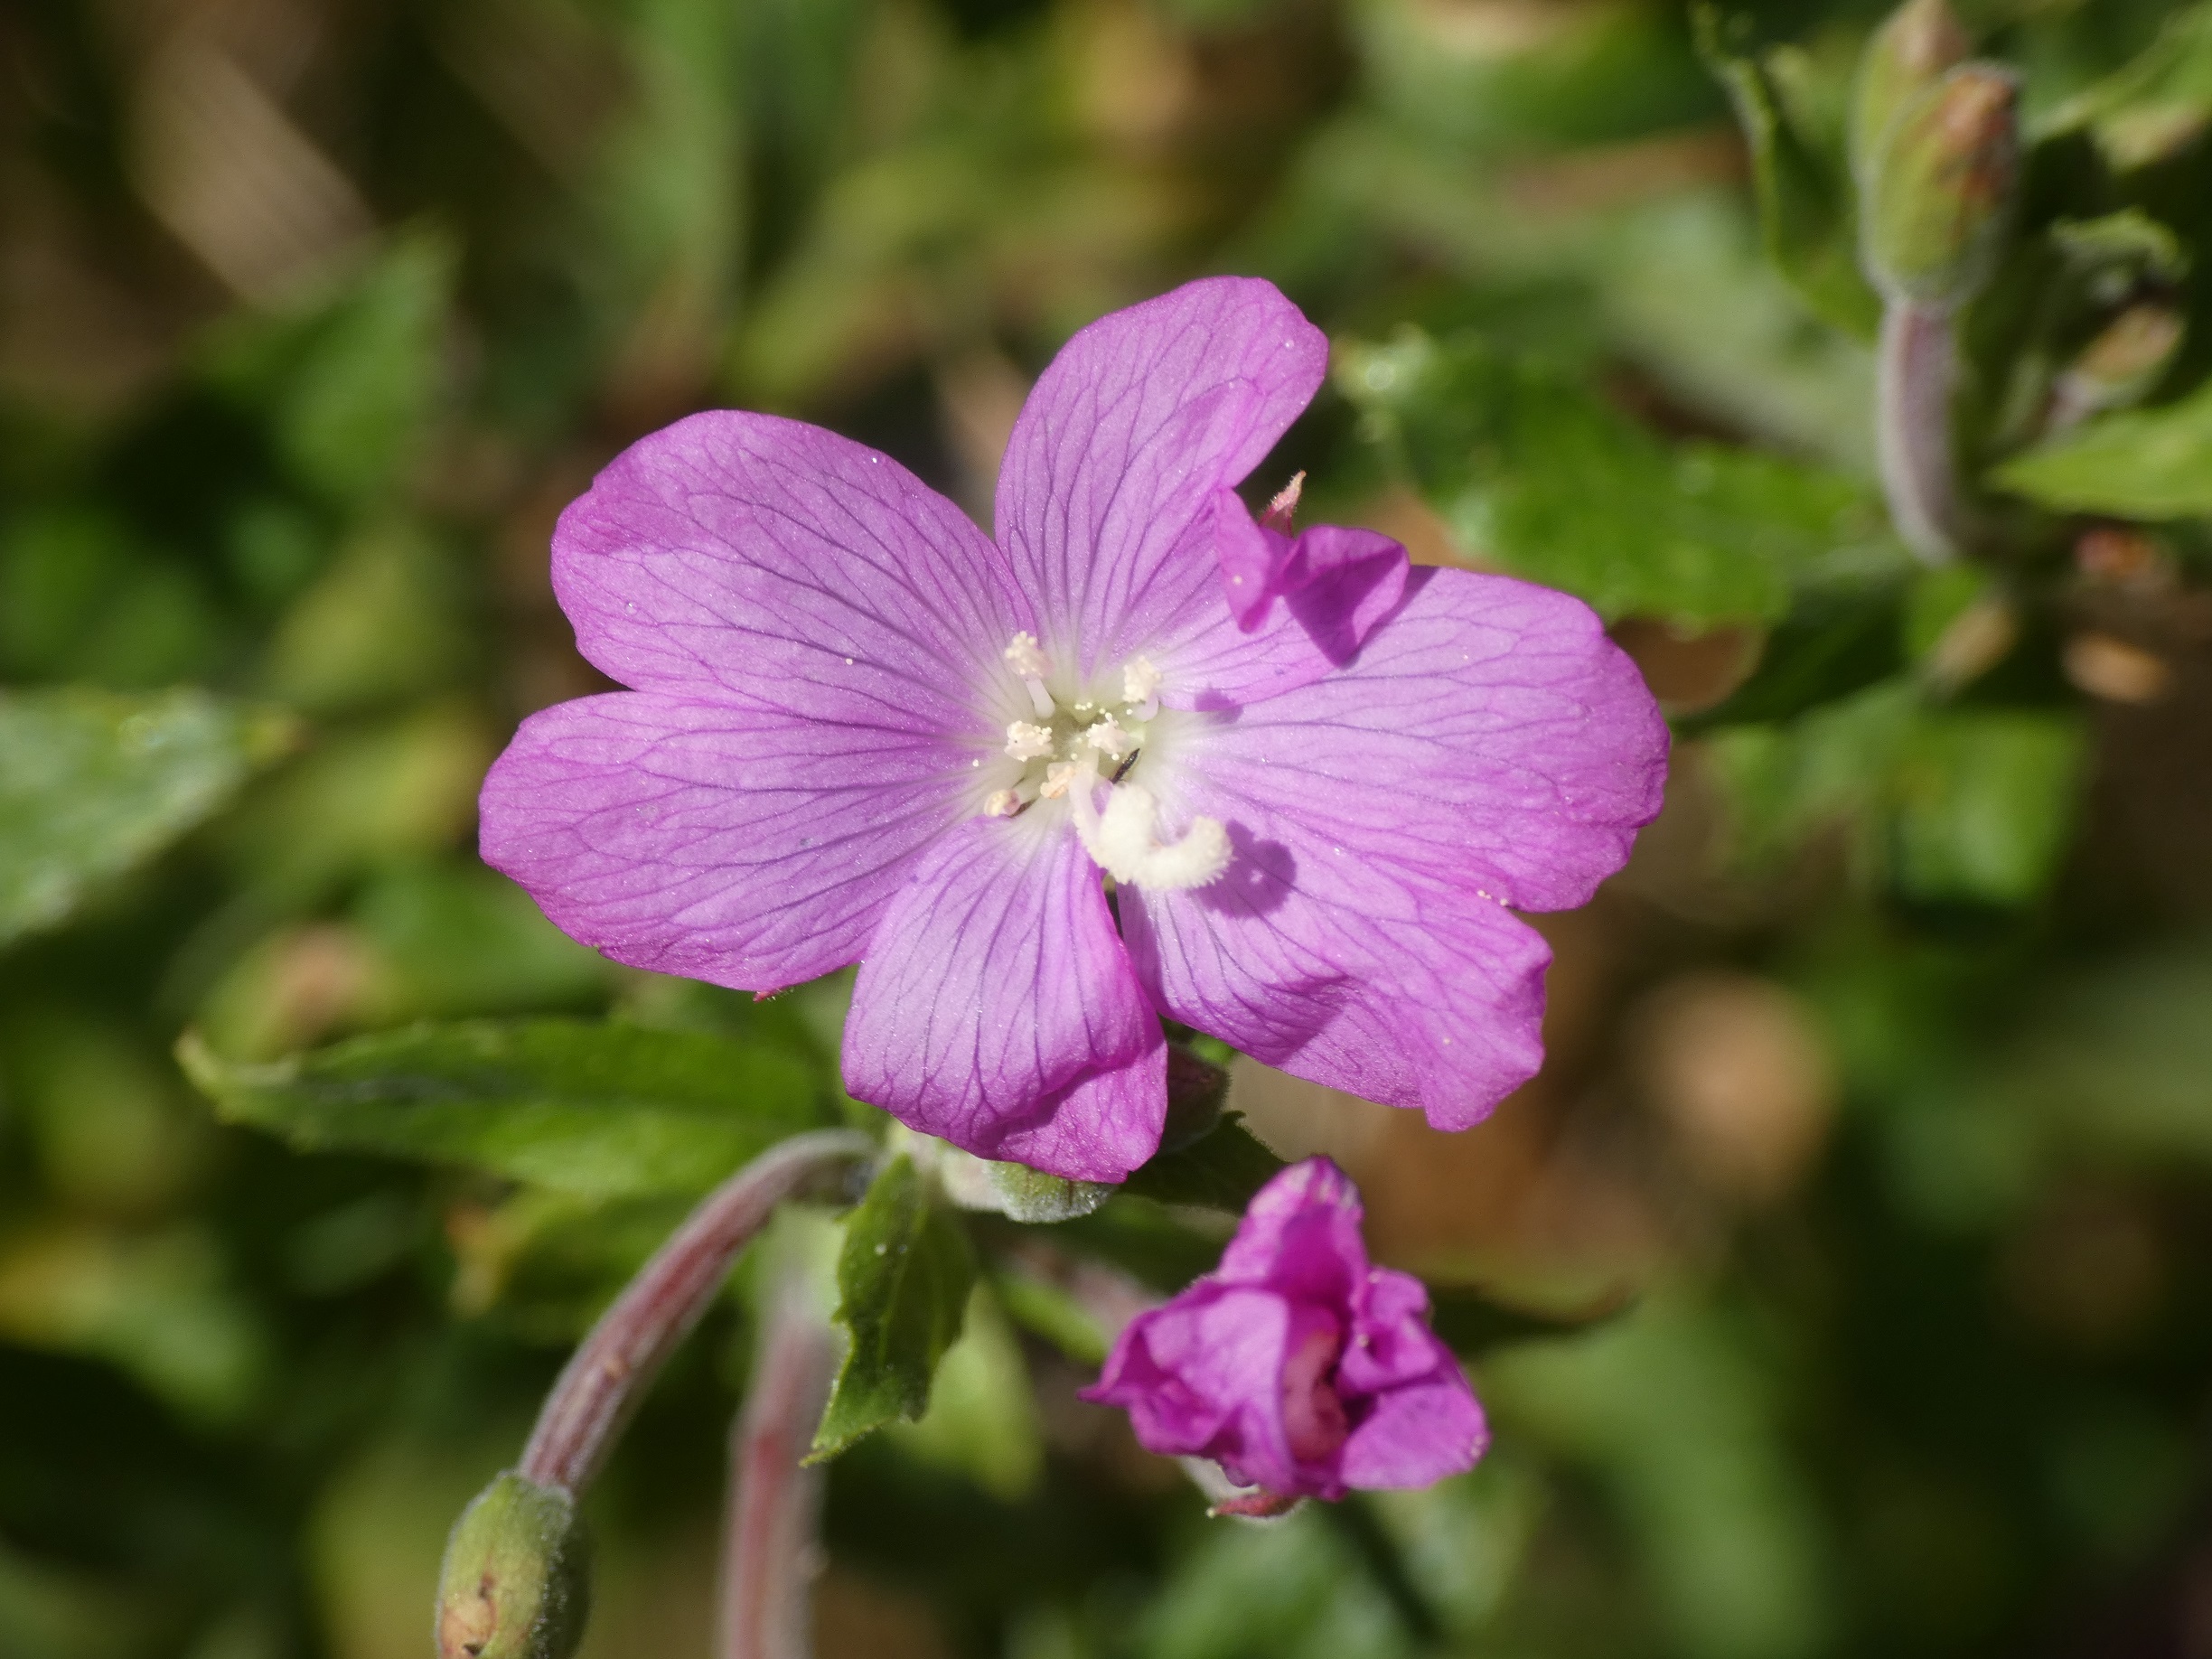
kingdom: Plantae
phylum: Tracheophyta
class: Magnoliopsida
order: Myrtales
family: Onagraceae
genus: Epilobium
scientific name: Epilobium hirsutum
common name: Lådden dueurt
